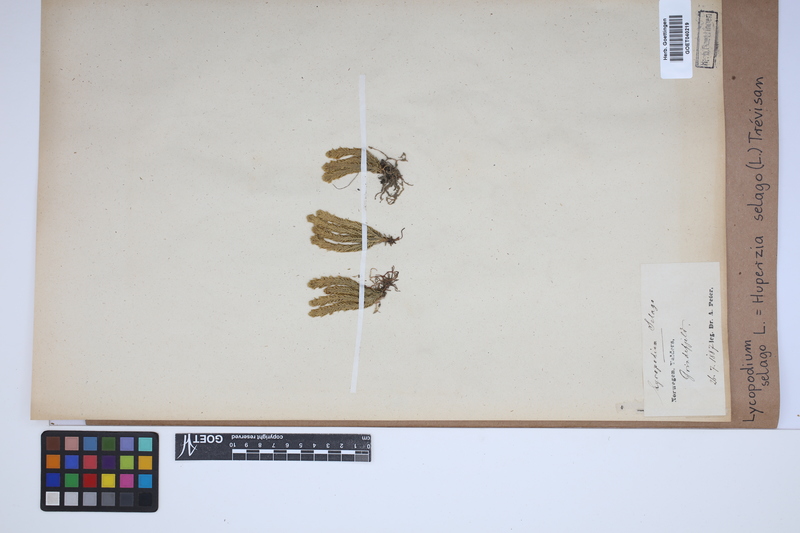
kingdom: Plantae
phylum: Tracheophyta
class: Lycopodiopsida
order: Lycopodiales
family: Lycopodiaceae
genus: Huperzia
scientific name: Huperzia selago
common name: Northern firmoss
